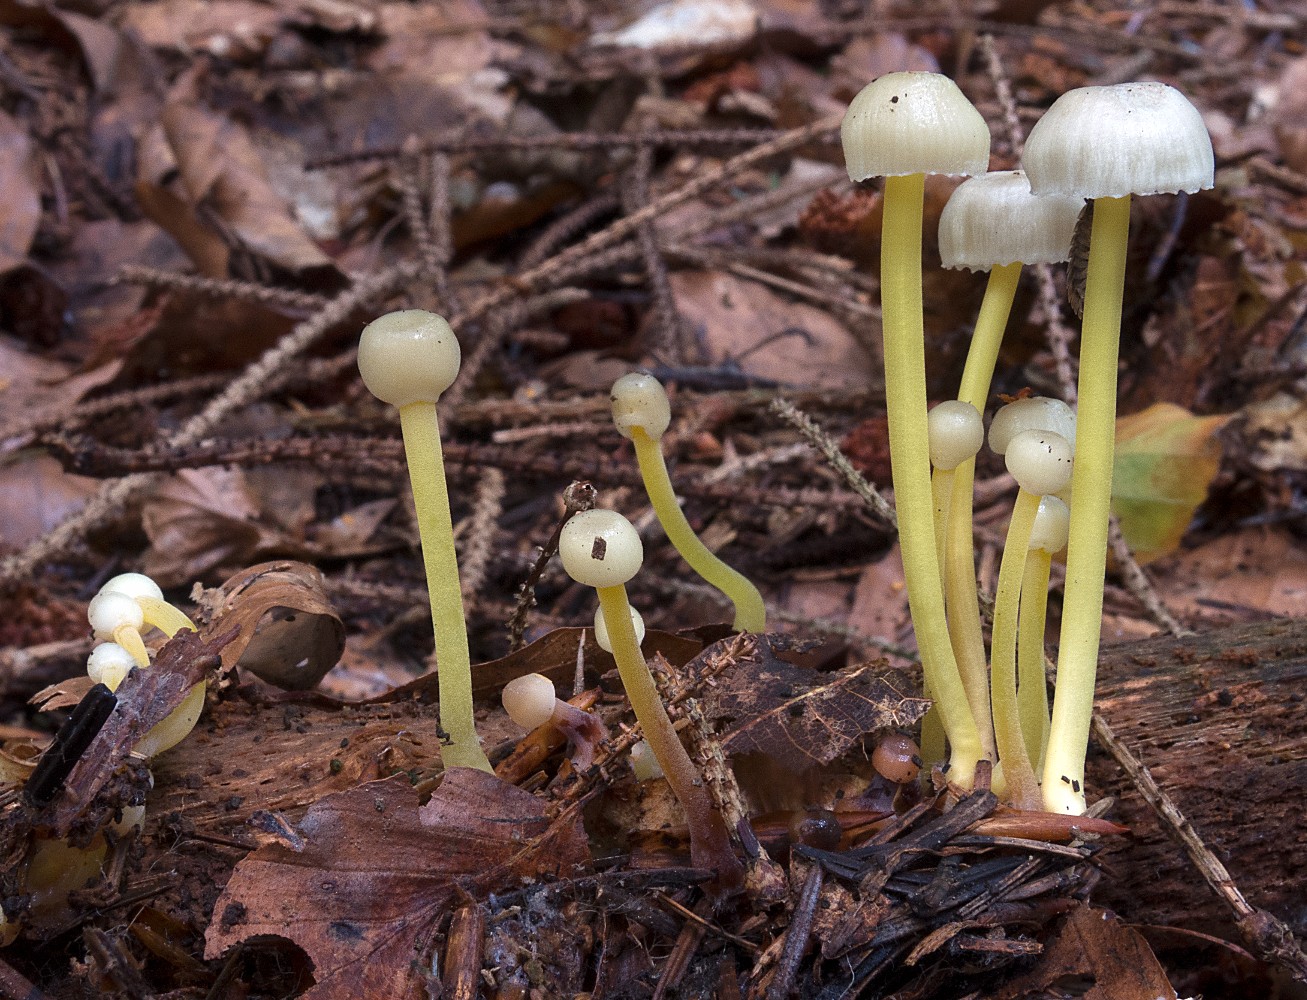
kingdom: Fungi
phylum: Basidiomycota
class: Agaricomycetes
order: Agaricales
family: Mycenaceae
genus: Mycena
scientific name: Mycena epipterygia
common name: gulstokket huesvamp
